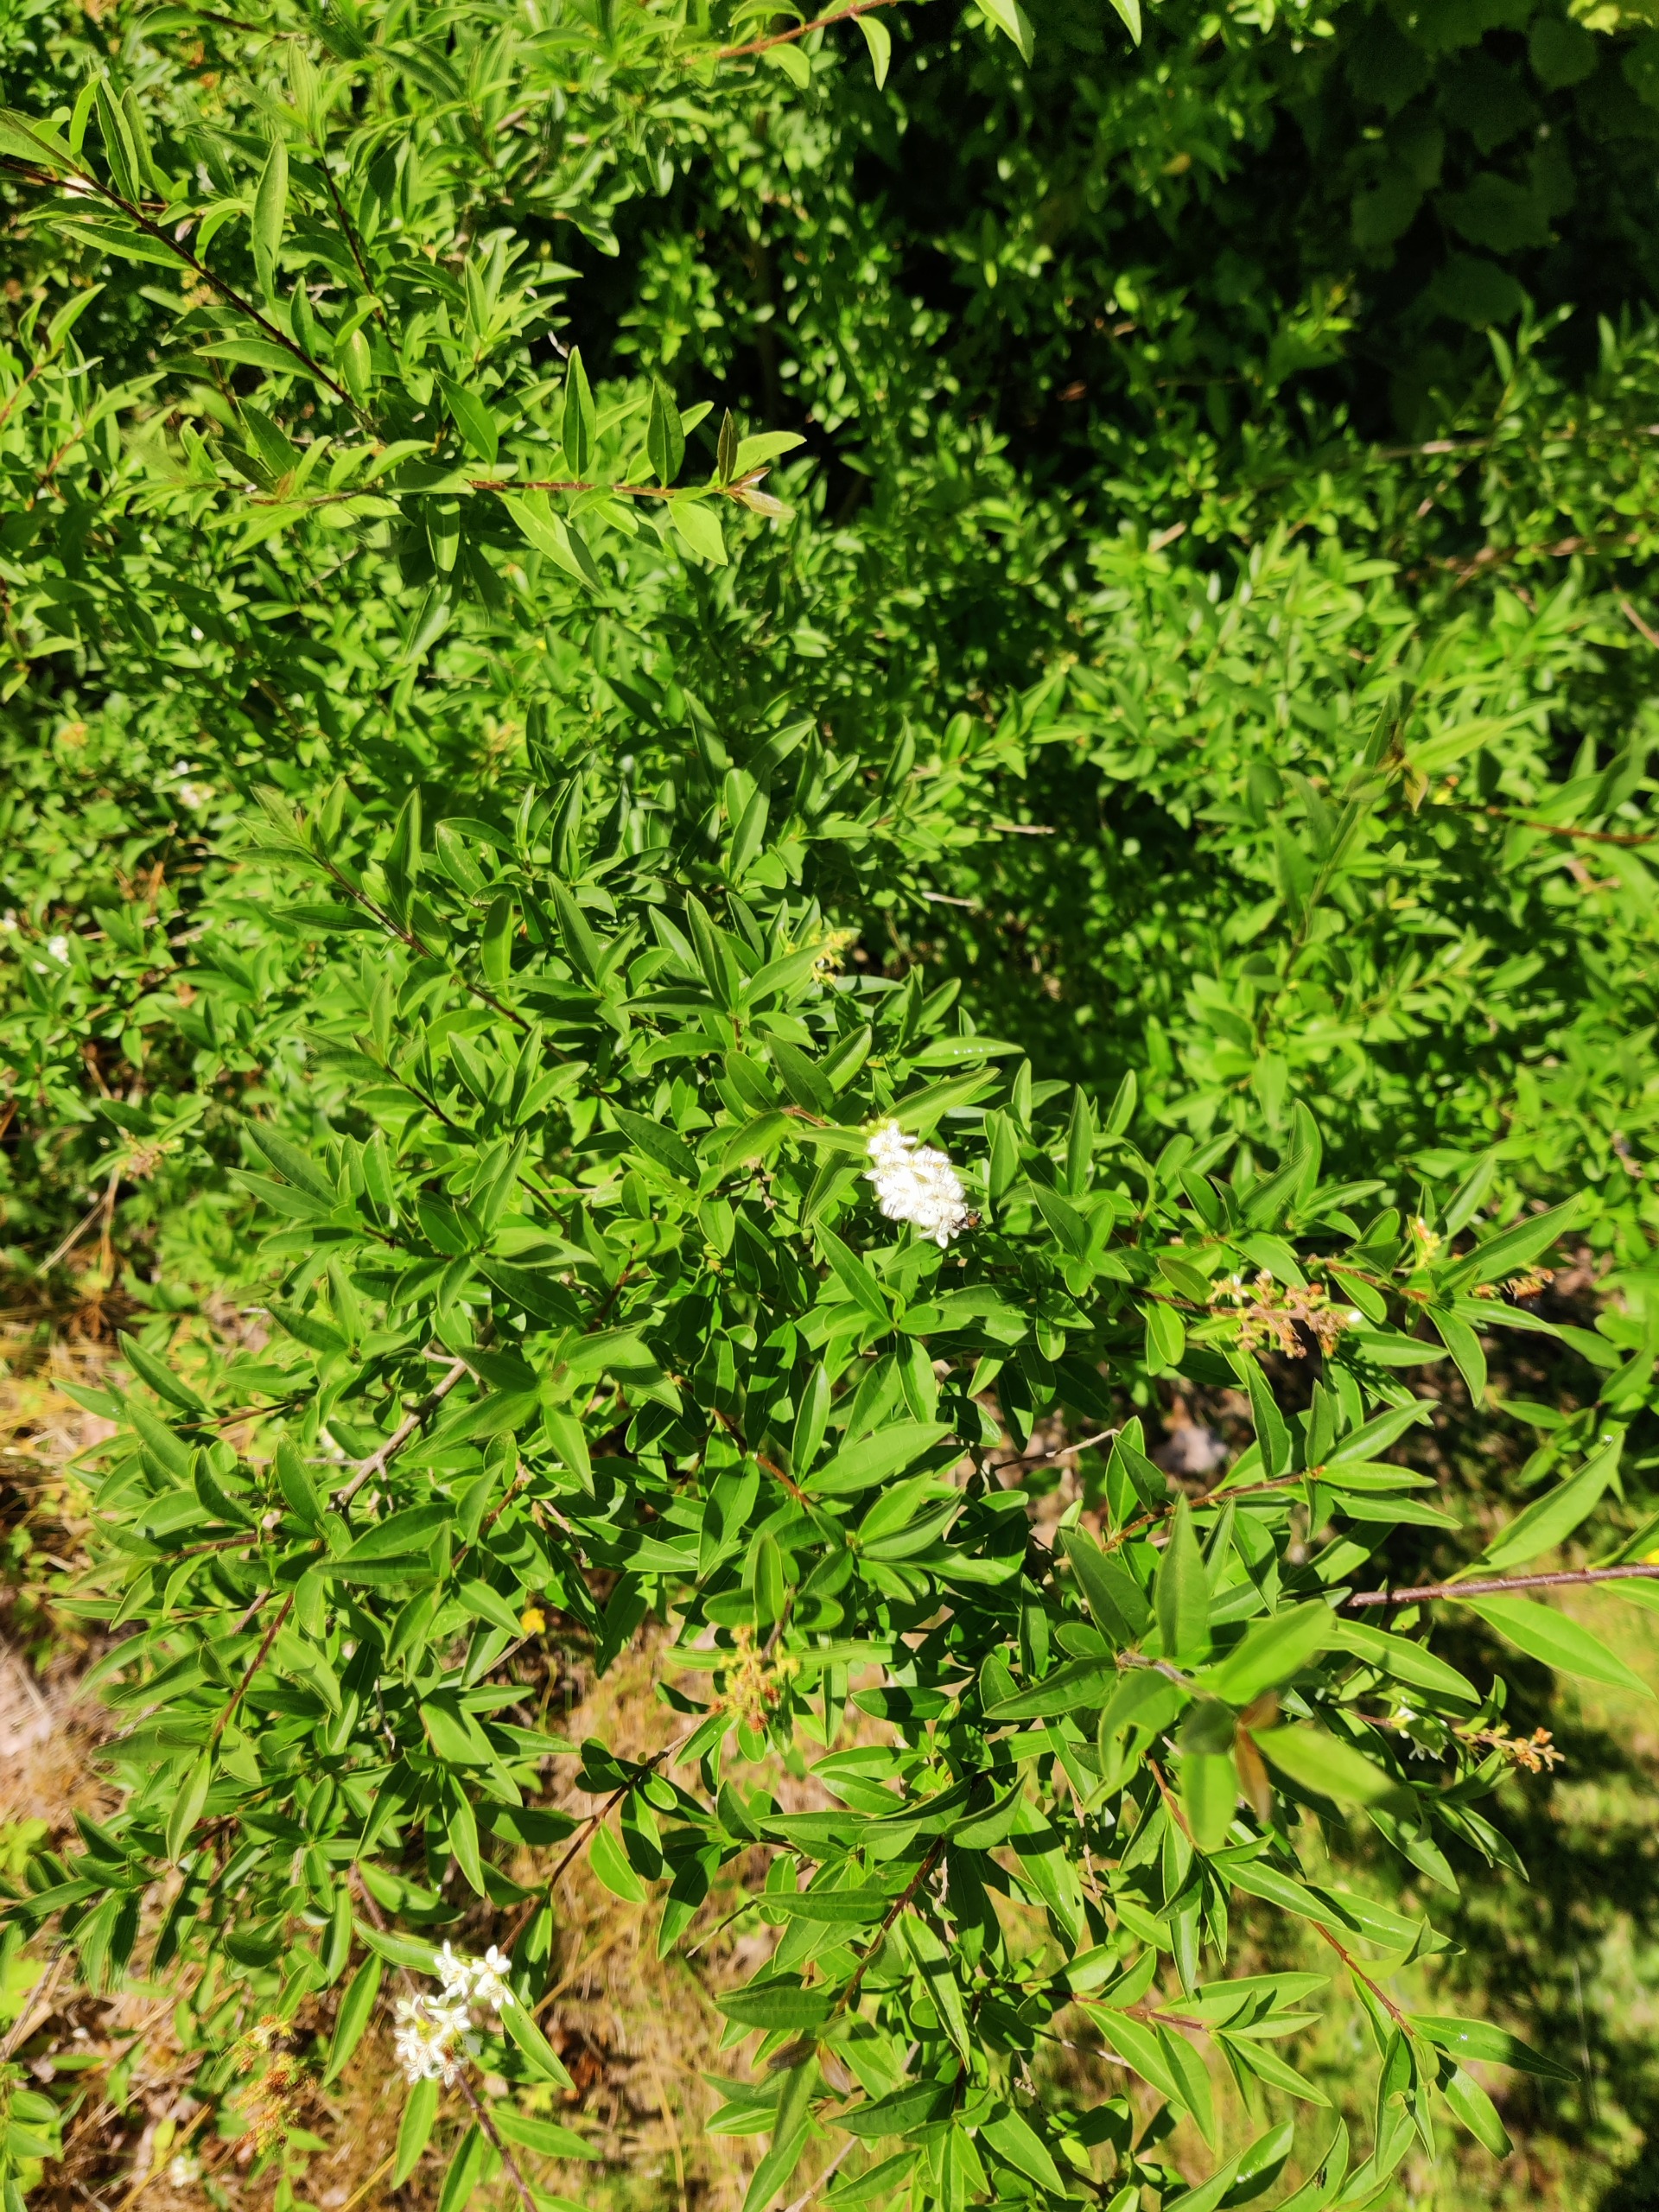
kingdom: Plantae
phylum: Tracheophyta
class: Magnoliopsida
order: Lamiales
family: Oleaceae
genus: Ligustrum
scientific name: Ligustrum vulgare
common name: Liguster
